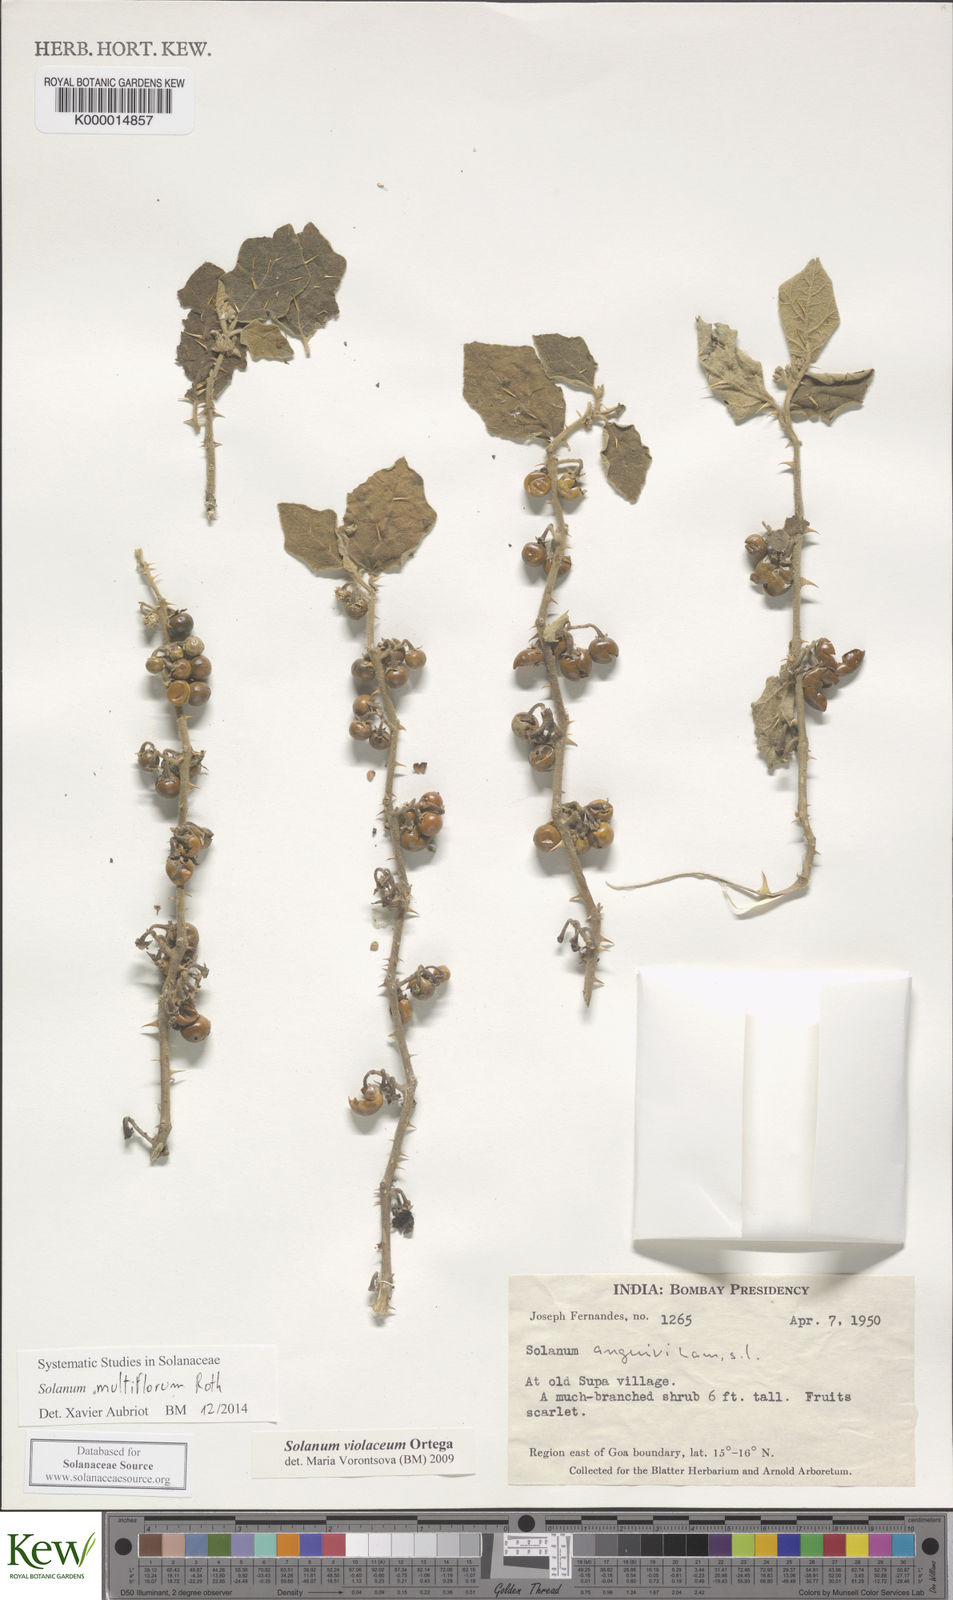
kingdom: Plantae
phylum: Tracheophyta
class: Magnoliopsida
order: Solanales
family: Solanaceae
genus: Solanum
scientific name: Solanum multiflorum
